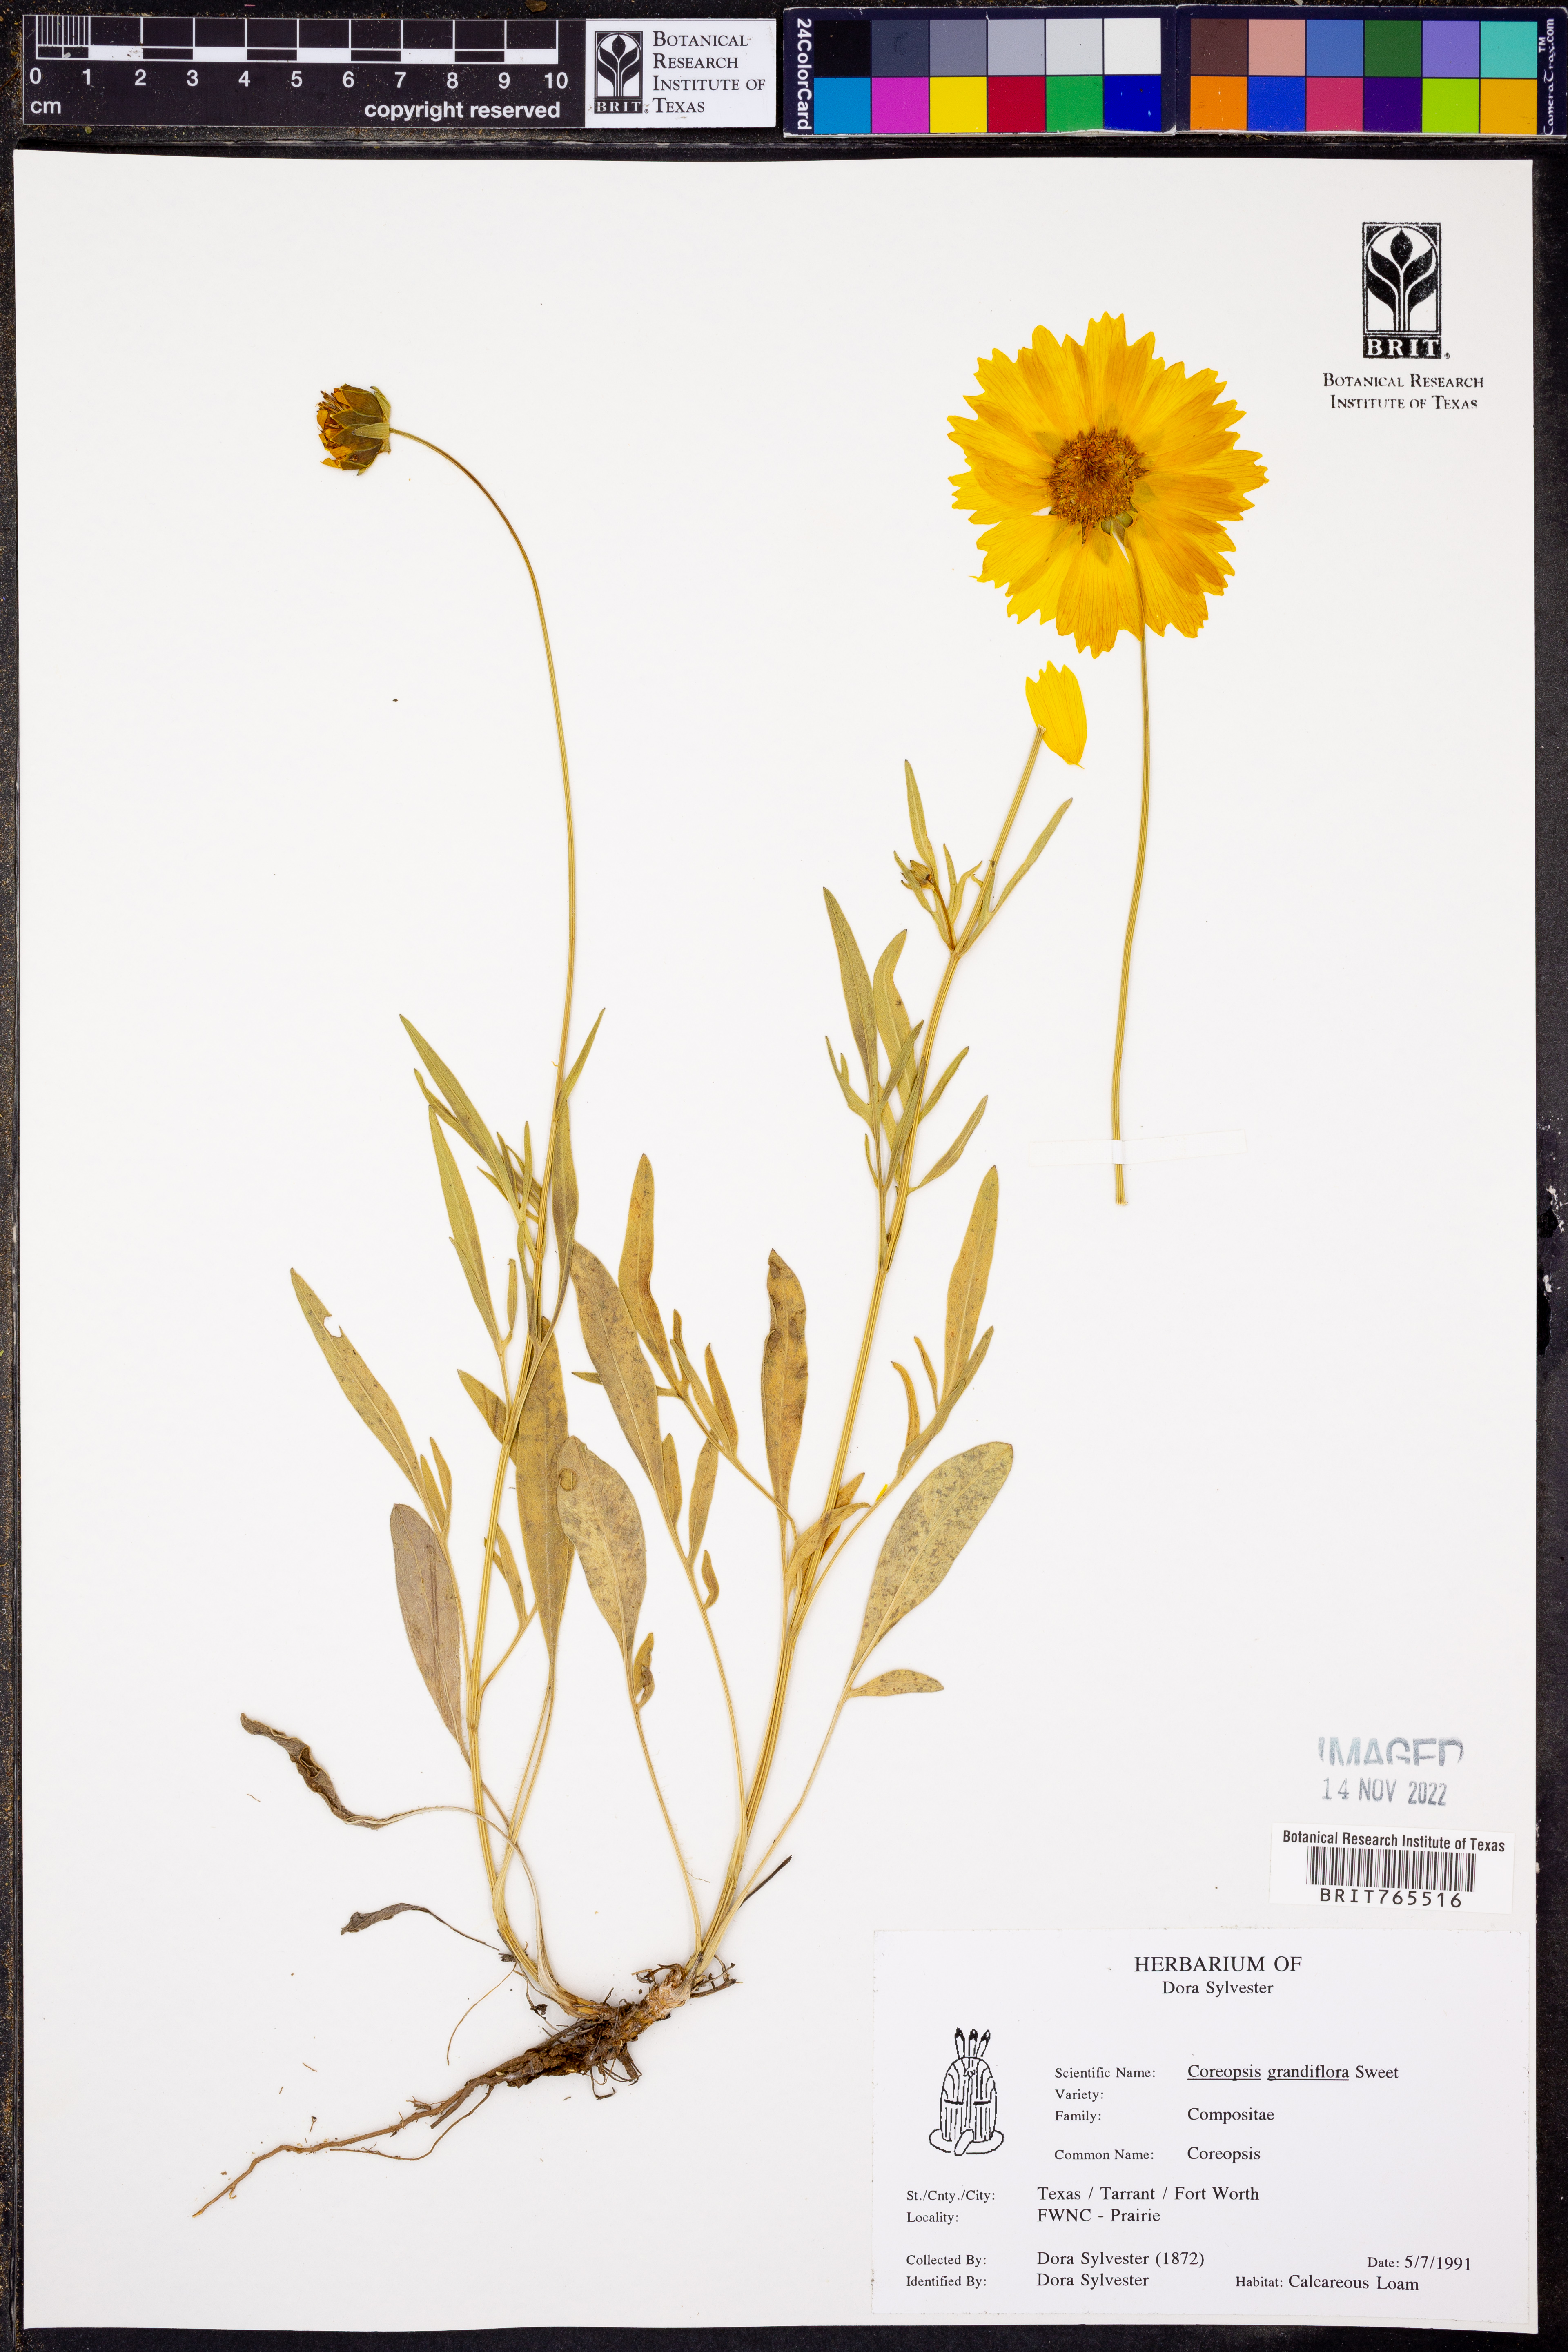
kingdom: Plantae
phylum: Tracheophyta
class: Magnoliopsida
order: Asterales
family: Asteraceae
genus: Coreopsis
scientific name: Coreopsis grandiflora
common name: Large-flowered tickseed
